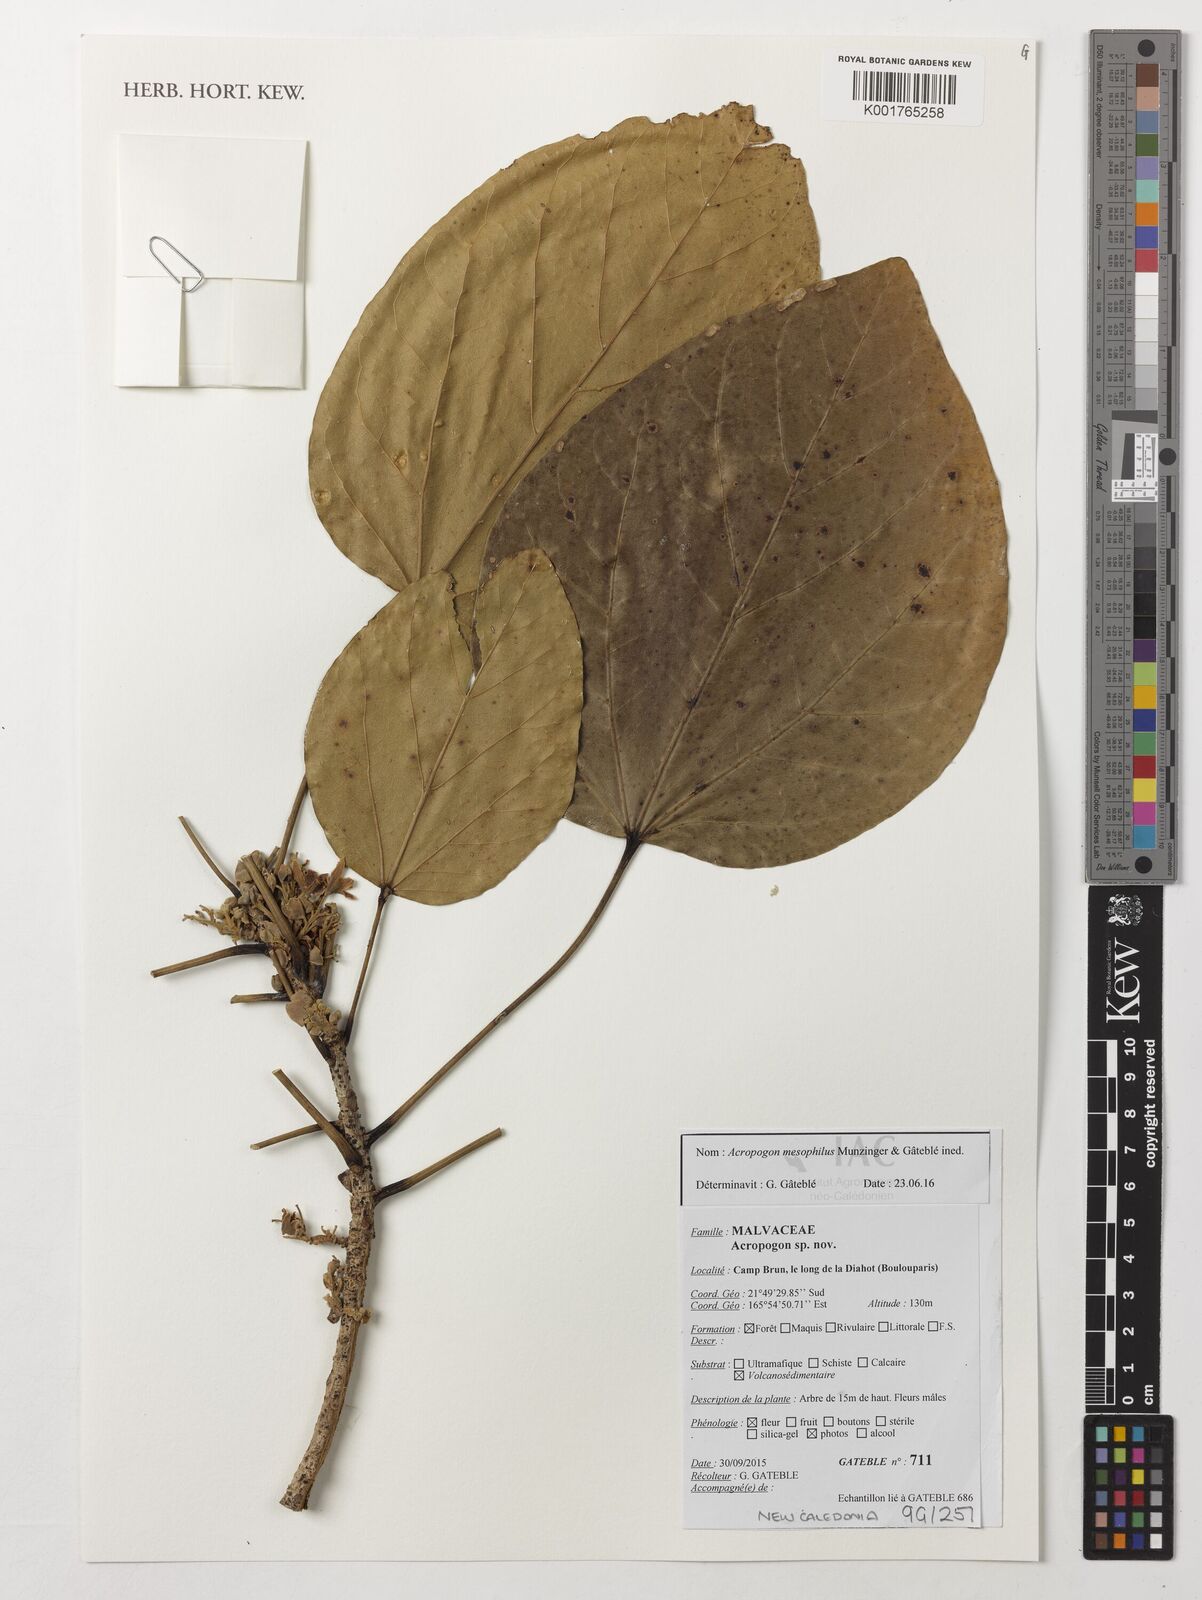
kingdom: Plantae
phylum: Tracheophyta
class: Magnoliopsida
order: Malvales
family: Malvaceae
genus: Acropogon
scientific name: Acropogon mesophilus
